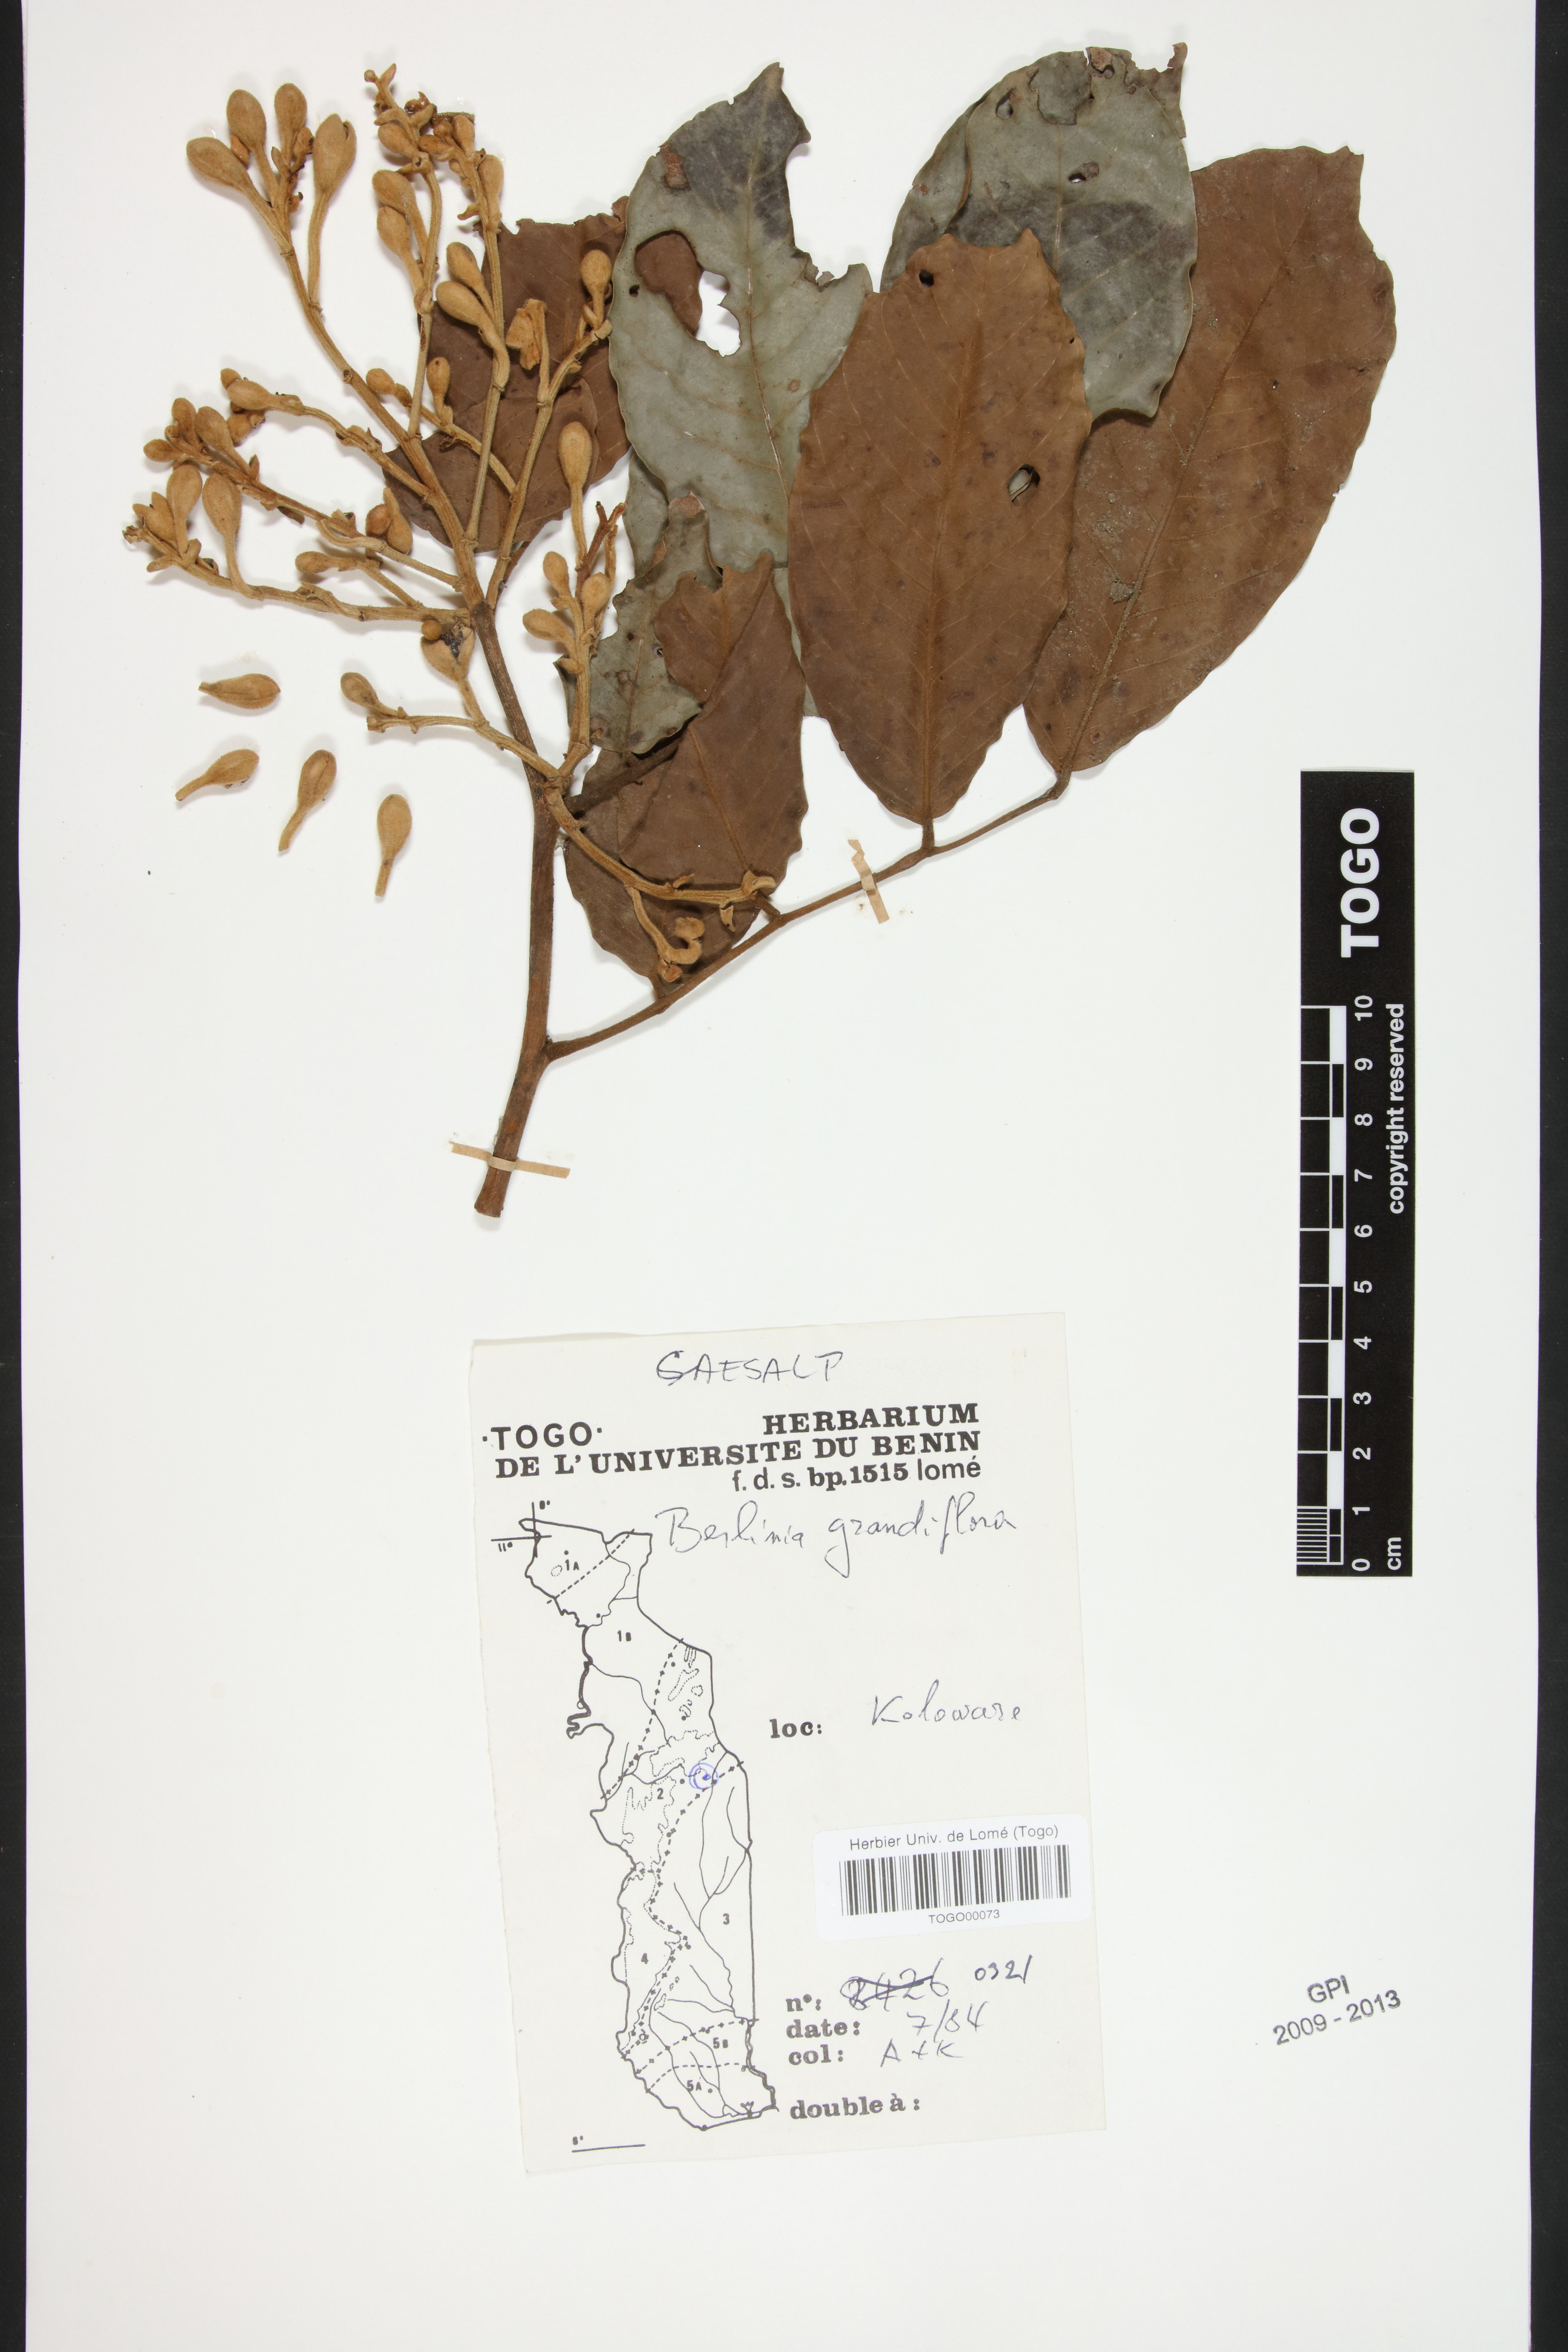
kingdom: Plantae
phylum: Tracheophyta
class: Magnoliopsida
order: Fabales
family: Fabaceae
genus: Berlinia
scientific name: Berlinia grandiflora
